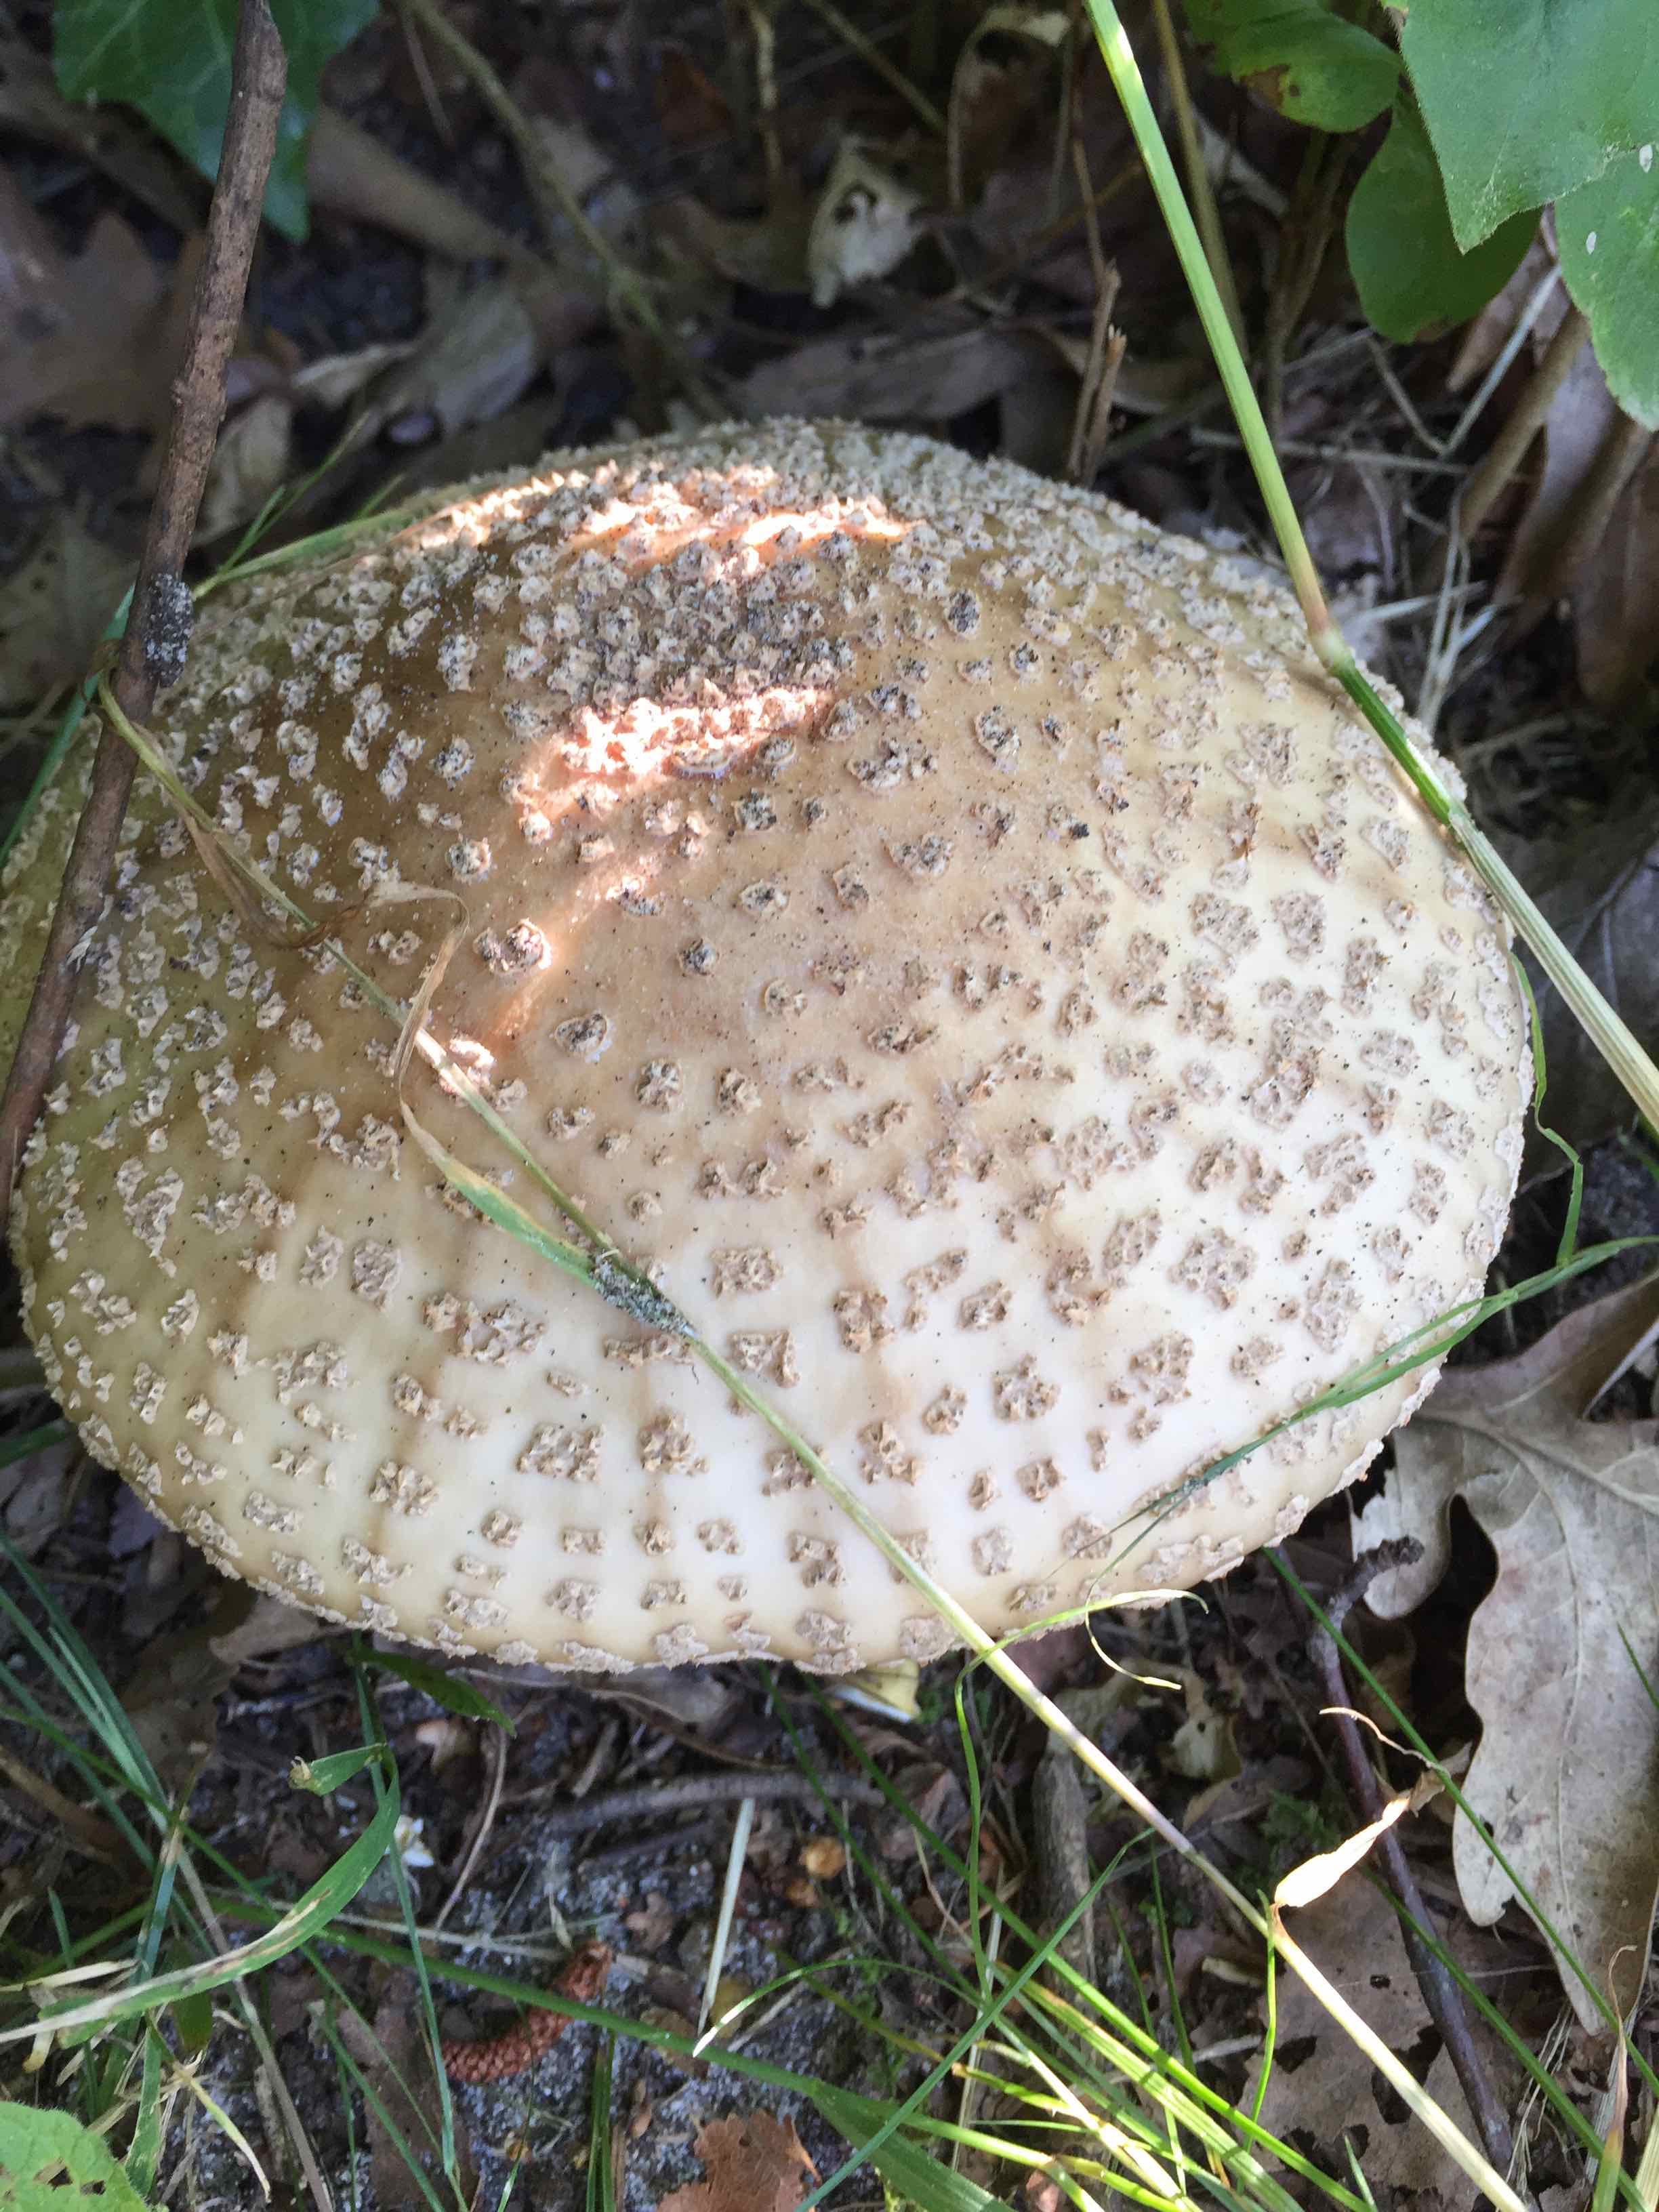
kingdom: Fungi
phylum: Basidiomycota
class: Agaricomycetes
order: Agaricales
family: Amanitaceae
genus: Amanita
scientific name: Amanita rubescens
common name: rødmende fluesvamp
